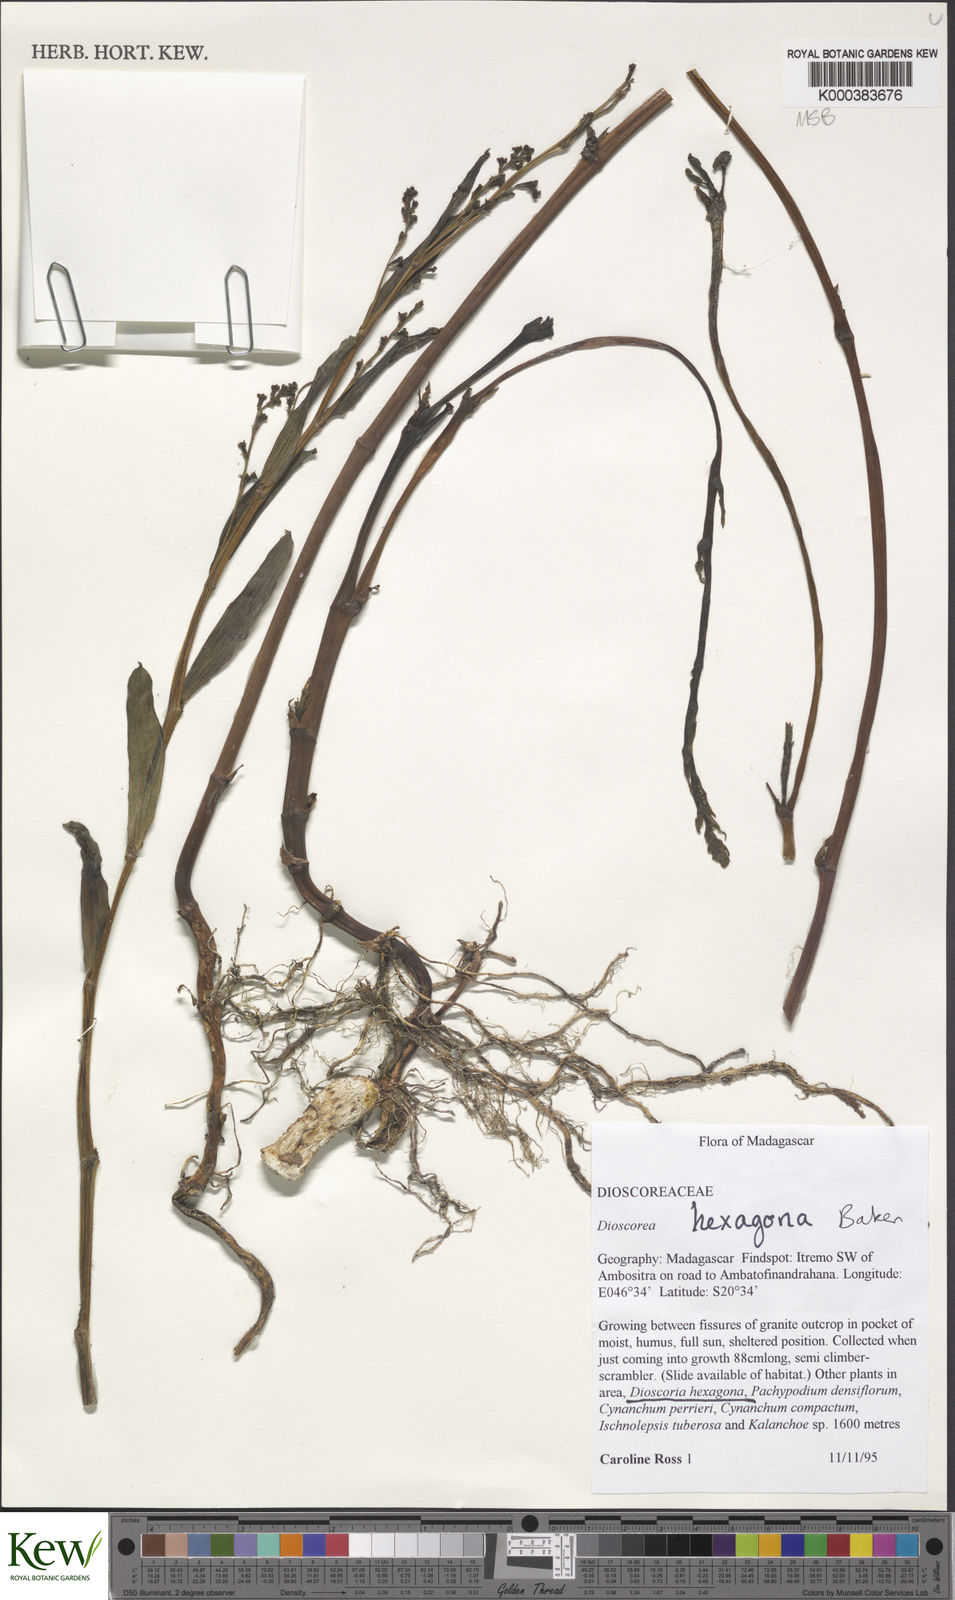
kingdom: Plantae
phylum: Tracheophyta
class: Liliopsida
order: Dioscoreales
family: Dioscoreaceae
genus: Dioscorea
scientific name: Dioscorea hexagona
